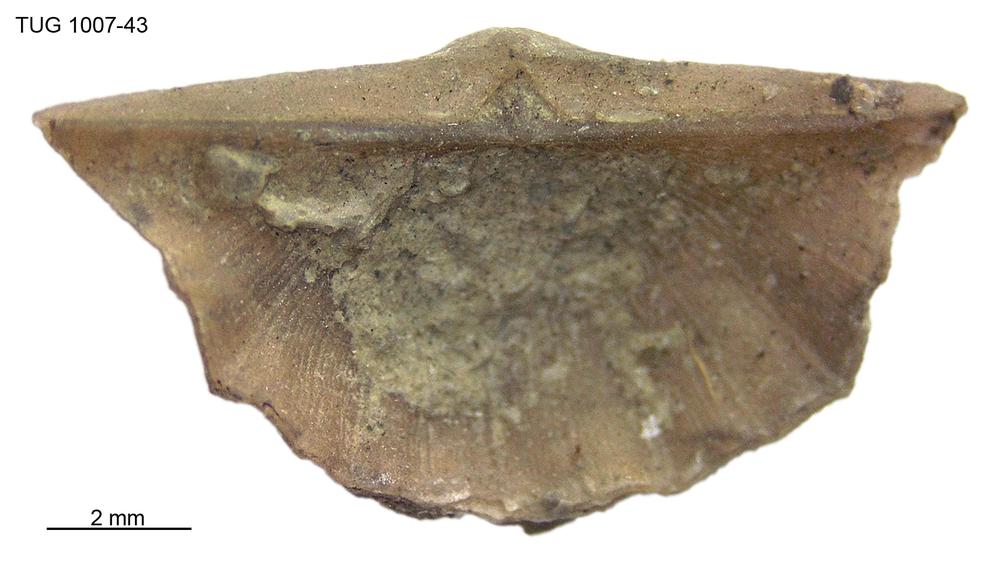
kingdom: Animalia
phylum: Brachiopoda
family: Oldhaminidae
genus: Eoplectodonta
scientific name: Eoplectodonta
